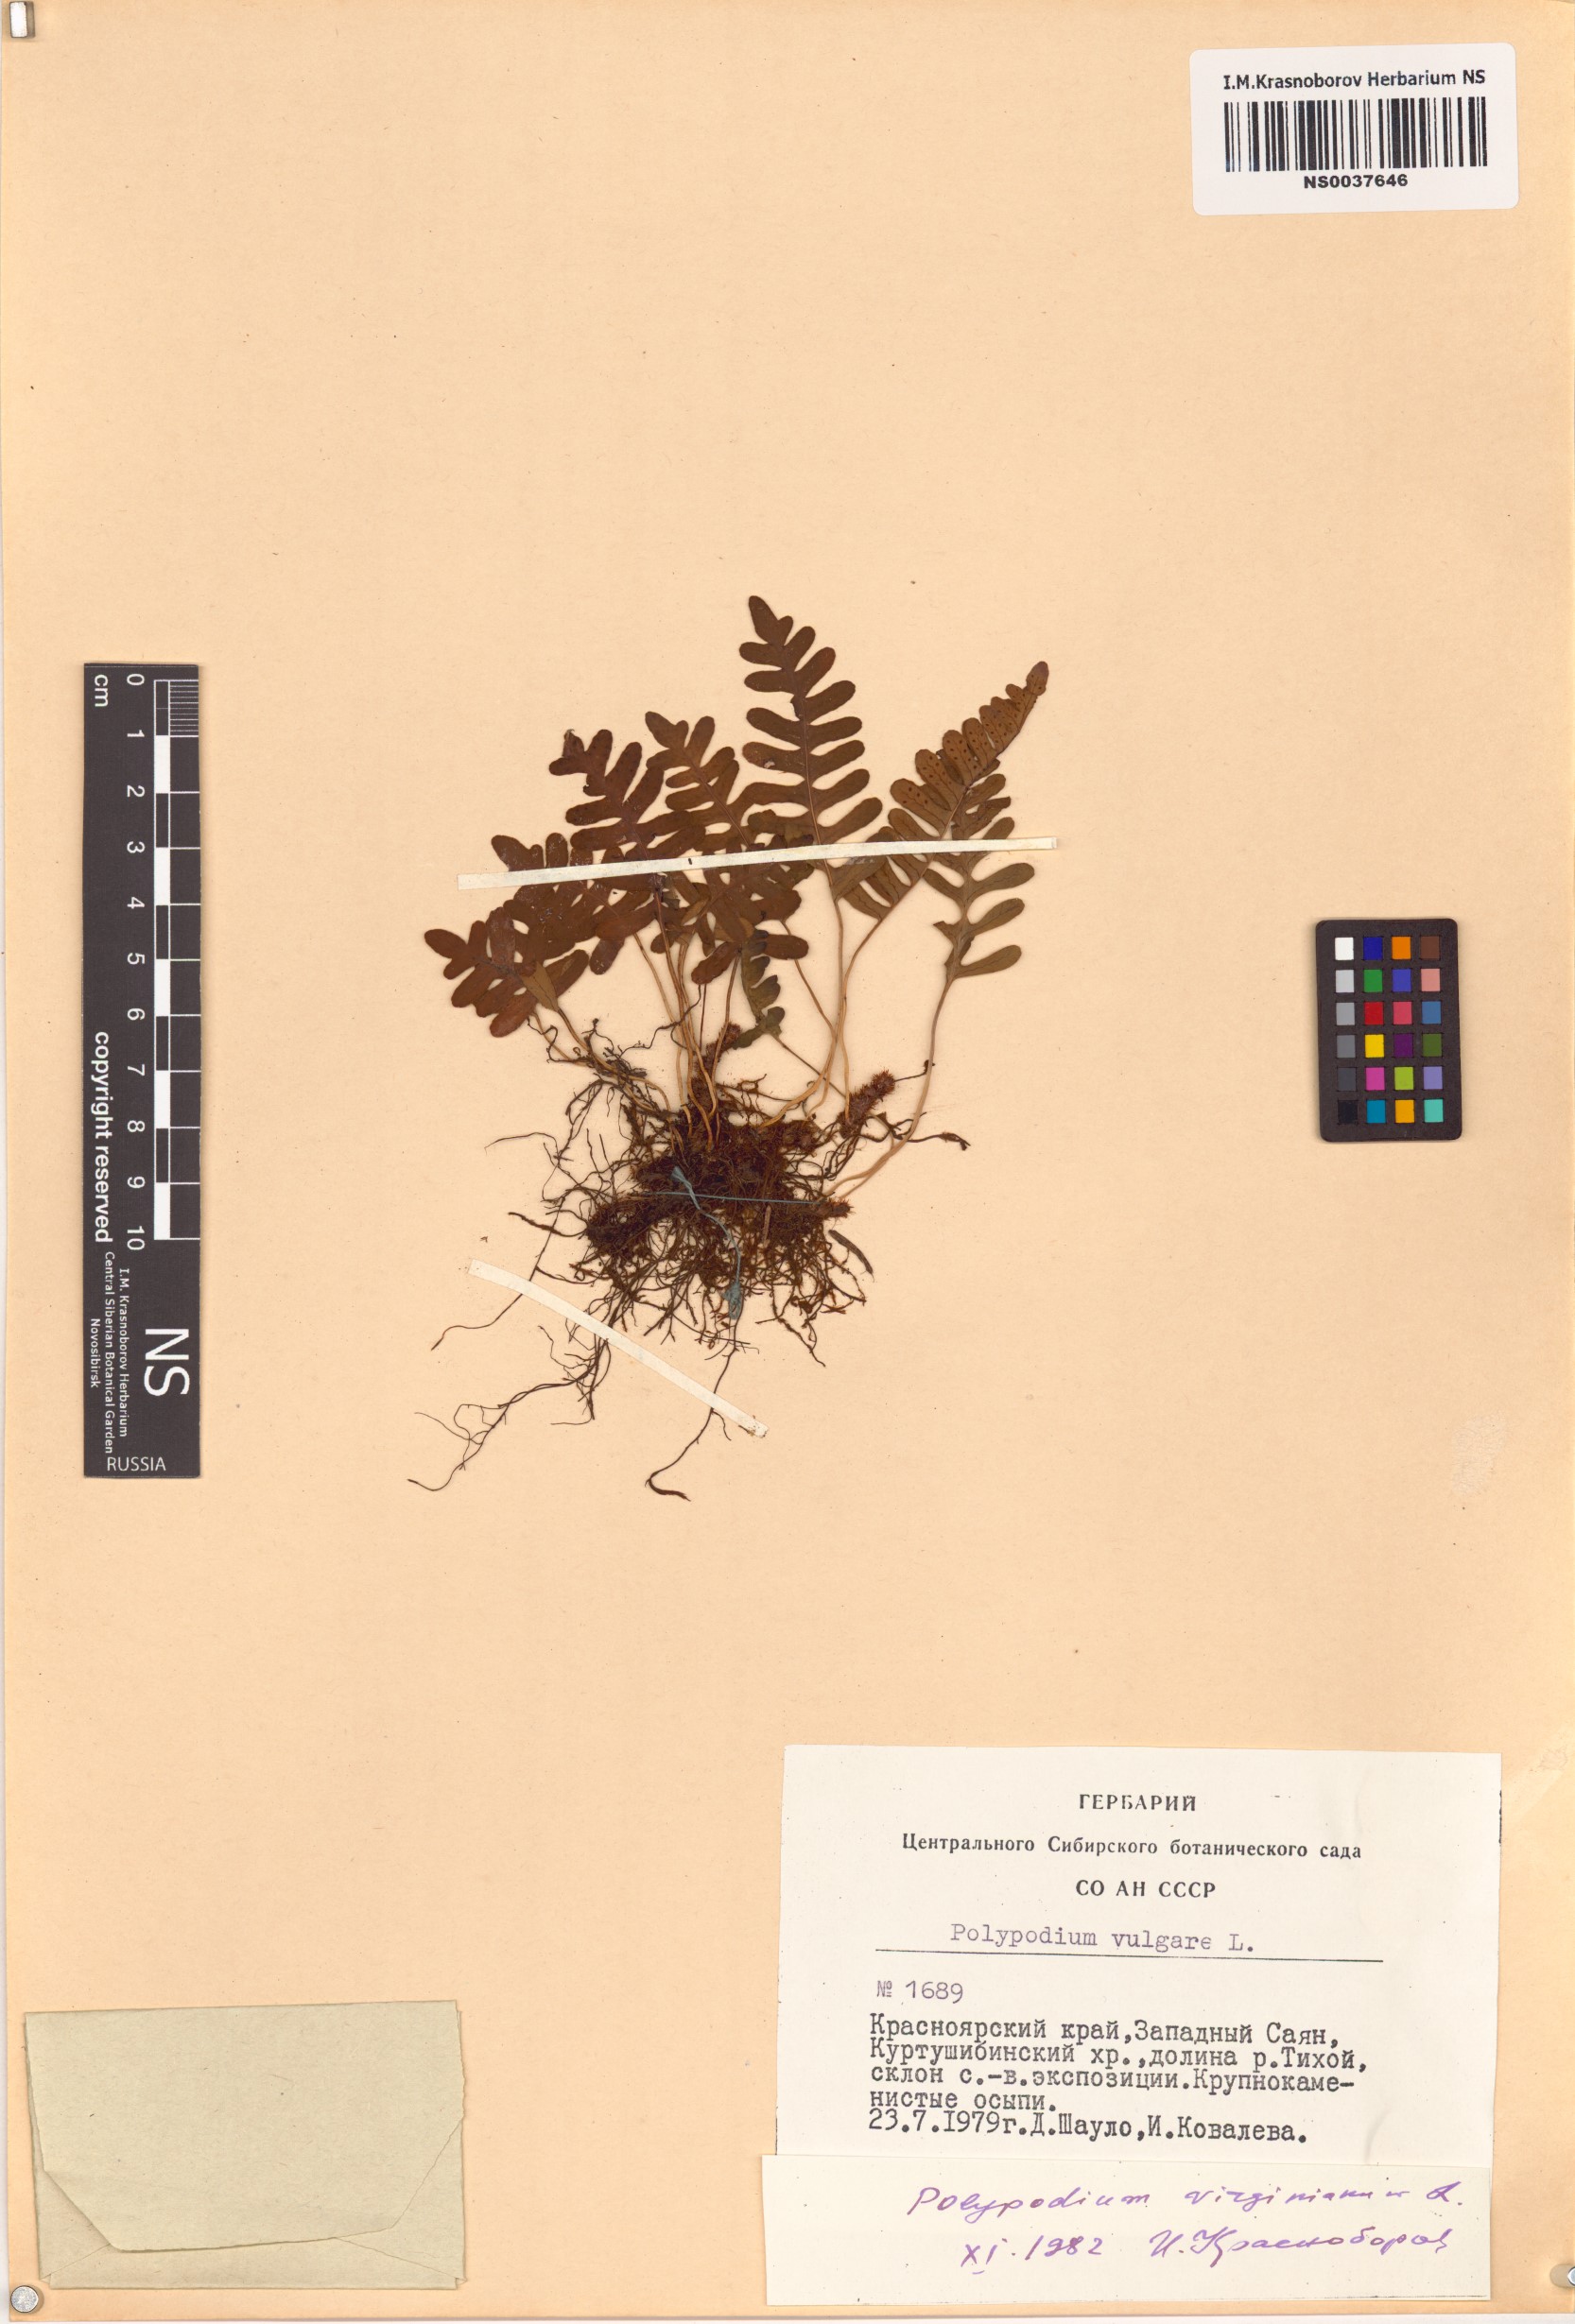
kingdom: Plantae
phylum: Tracheophyta
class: Polypodiopsida
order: Polypodiales
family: Polypodiaceae
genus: Polypodium
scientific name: Polypodium virginianum
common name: American wall fern
